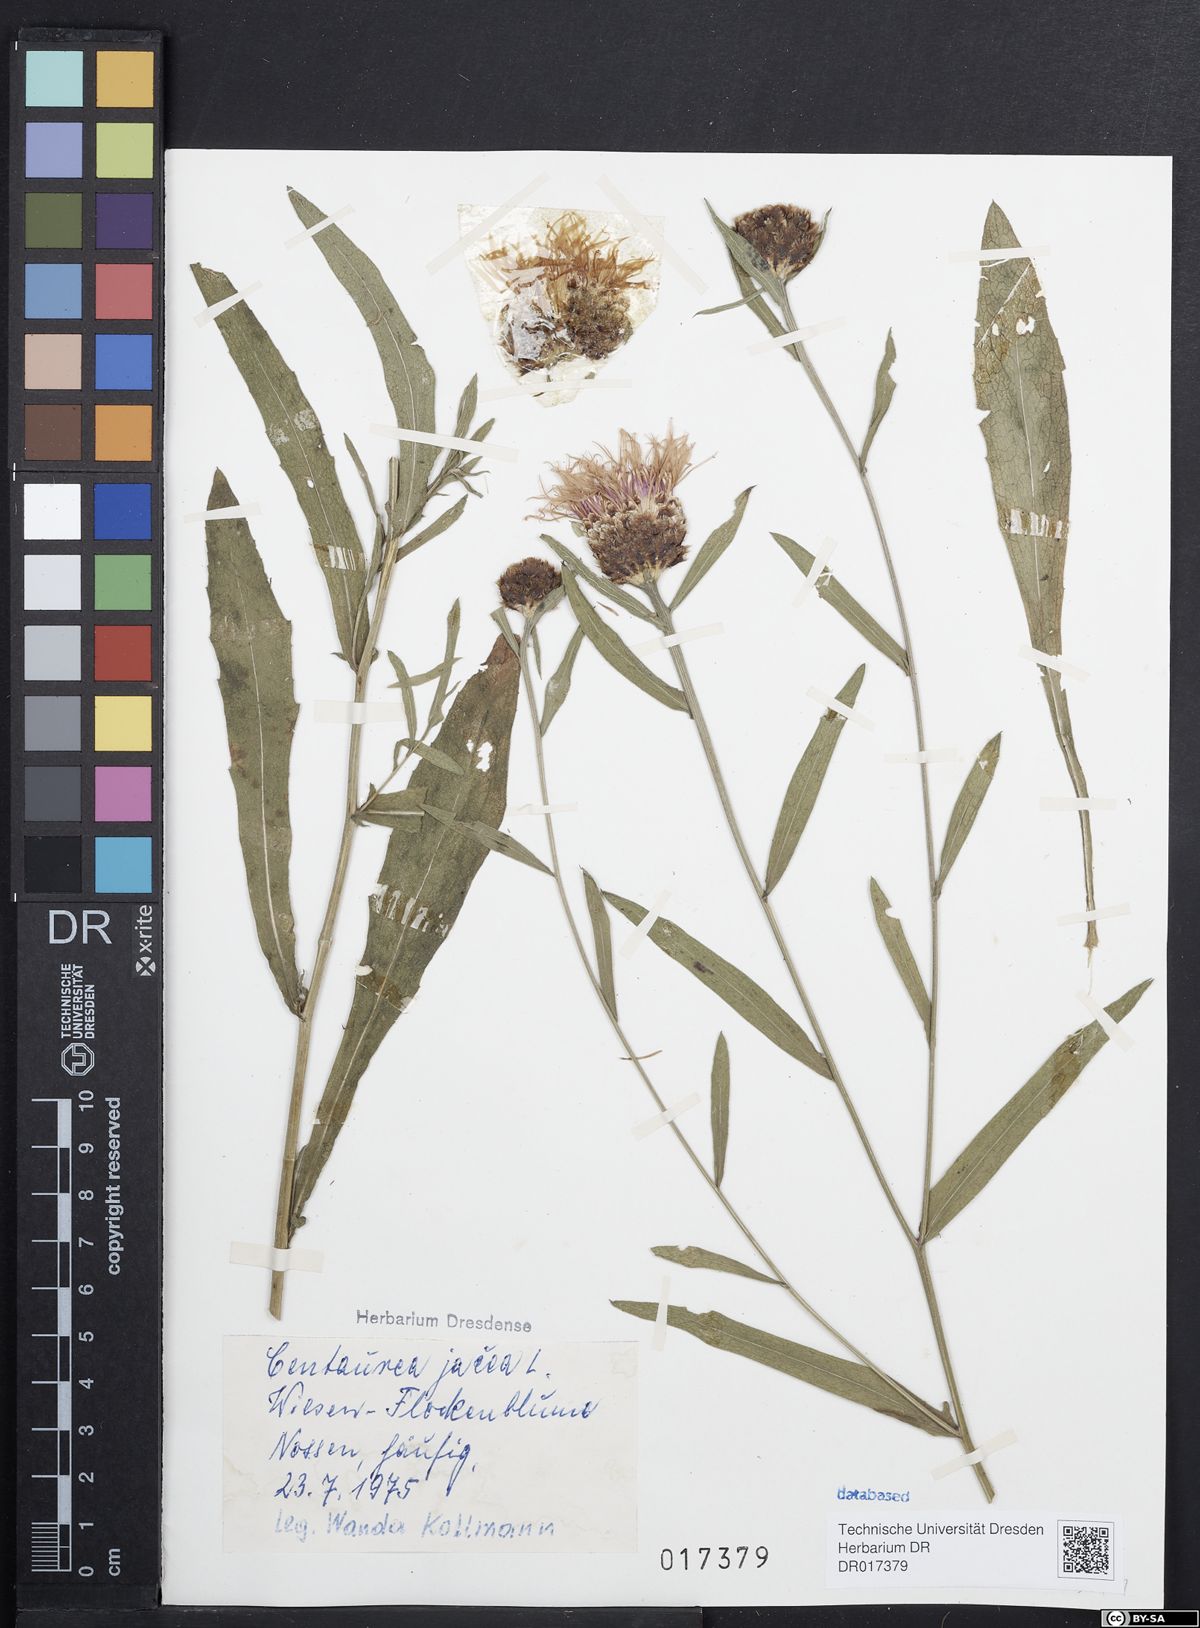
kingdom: Plantae
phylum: Tracheophyta
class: Magnoliopsida
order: Asterales
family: Asteraceae
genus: Centaurea
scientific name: Centaurea jacea
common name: Brown knapweed
